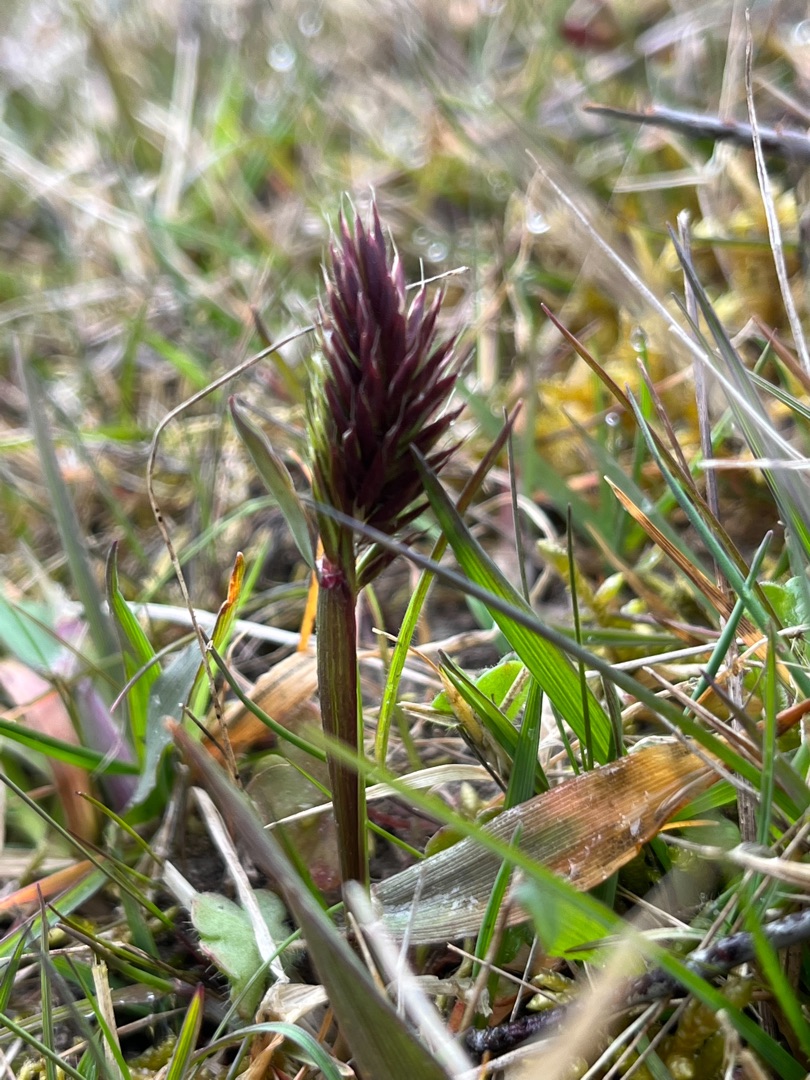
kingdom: Plantae
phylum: Tracheophyta
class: Liliopsida
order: Poales
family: Poaceae
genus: Anthoxanthum
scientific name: Anthoxanthum odoratum
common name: Vellugtende gulaks
